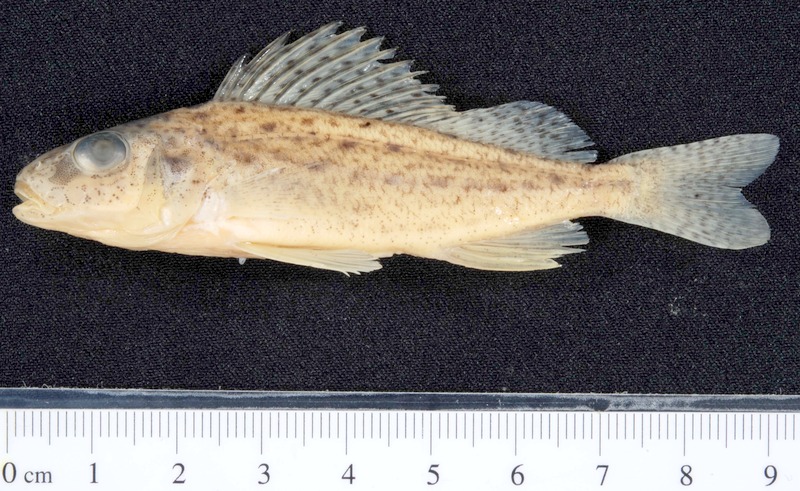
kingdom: Animalia
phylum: Chordata
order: Perciformes
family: Percidae
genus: Gymnocephalus
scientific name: Gymnocephalus cernua
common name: Ruffe
